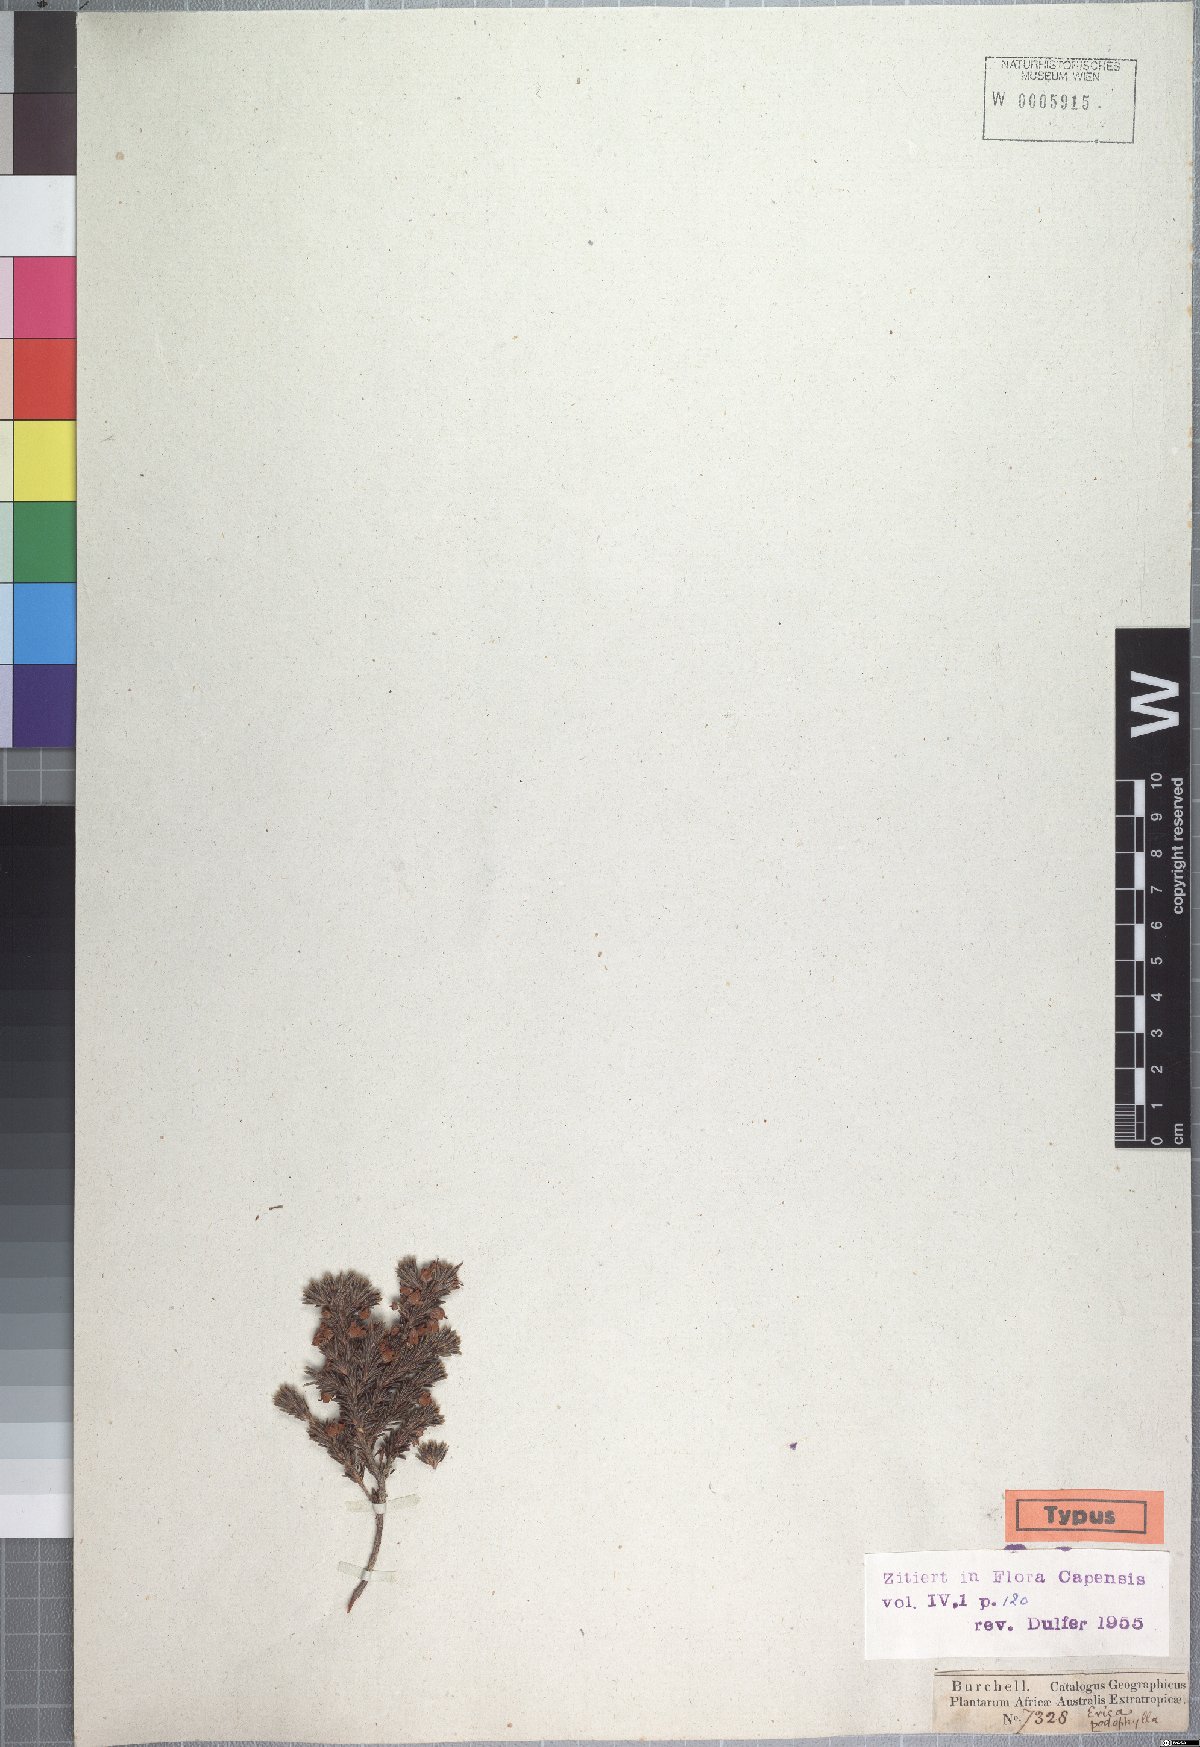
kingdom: Plantae
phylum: Tracheophyta
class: Magnoliopsida
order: Ericales
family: Ericaceae
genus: Erica
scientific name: Erica podophylla
